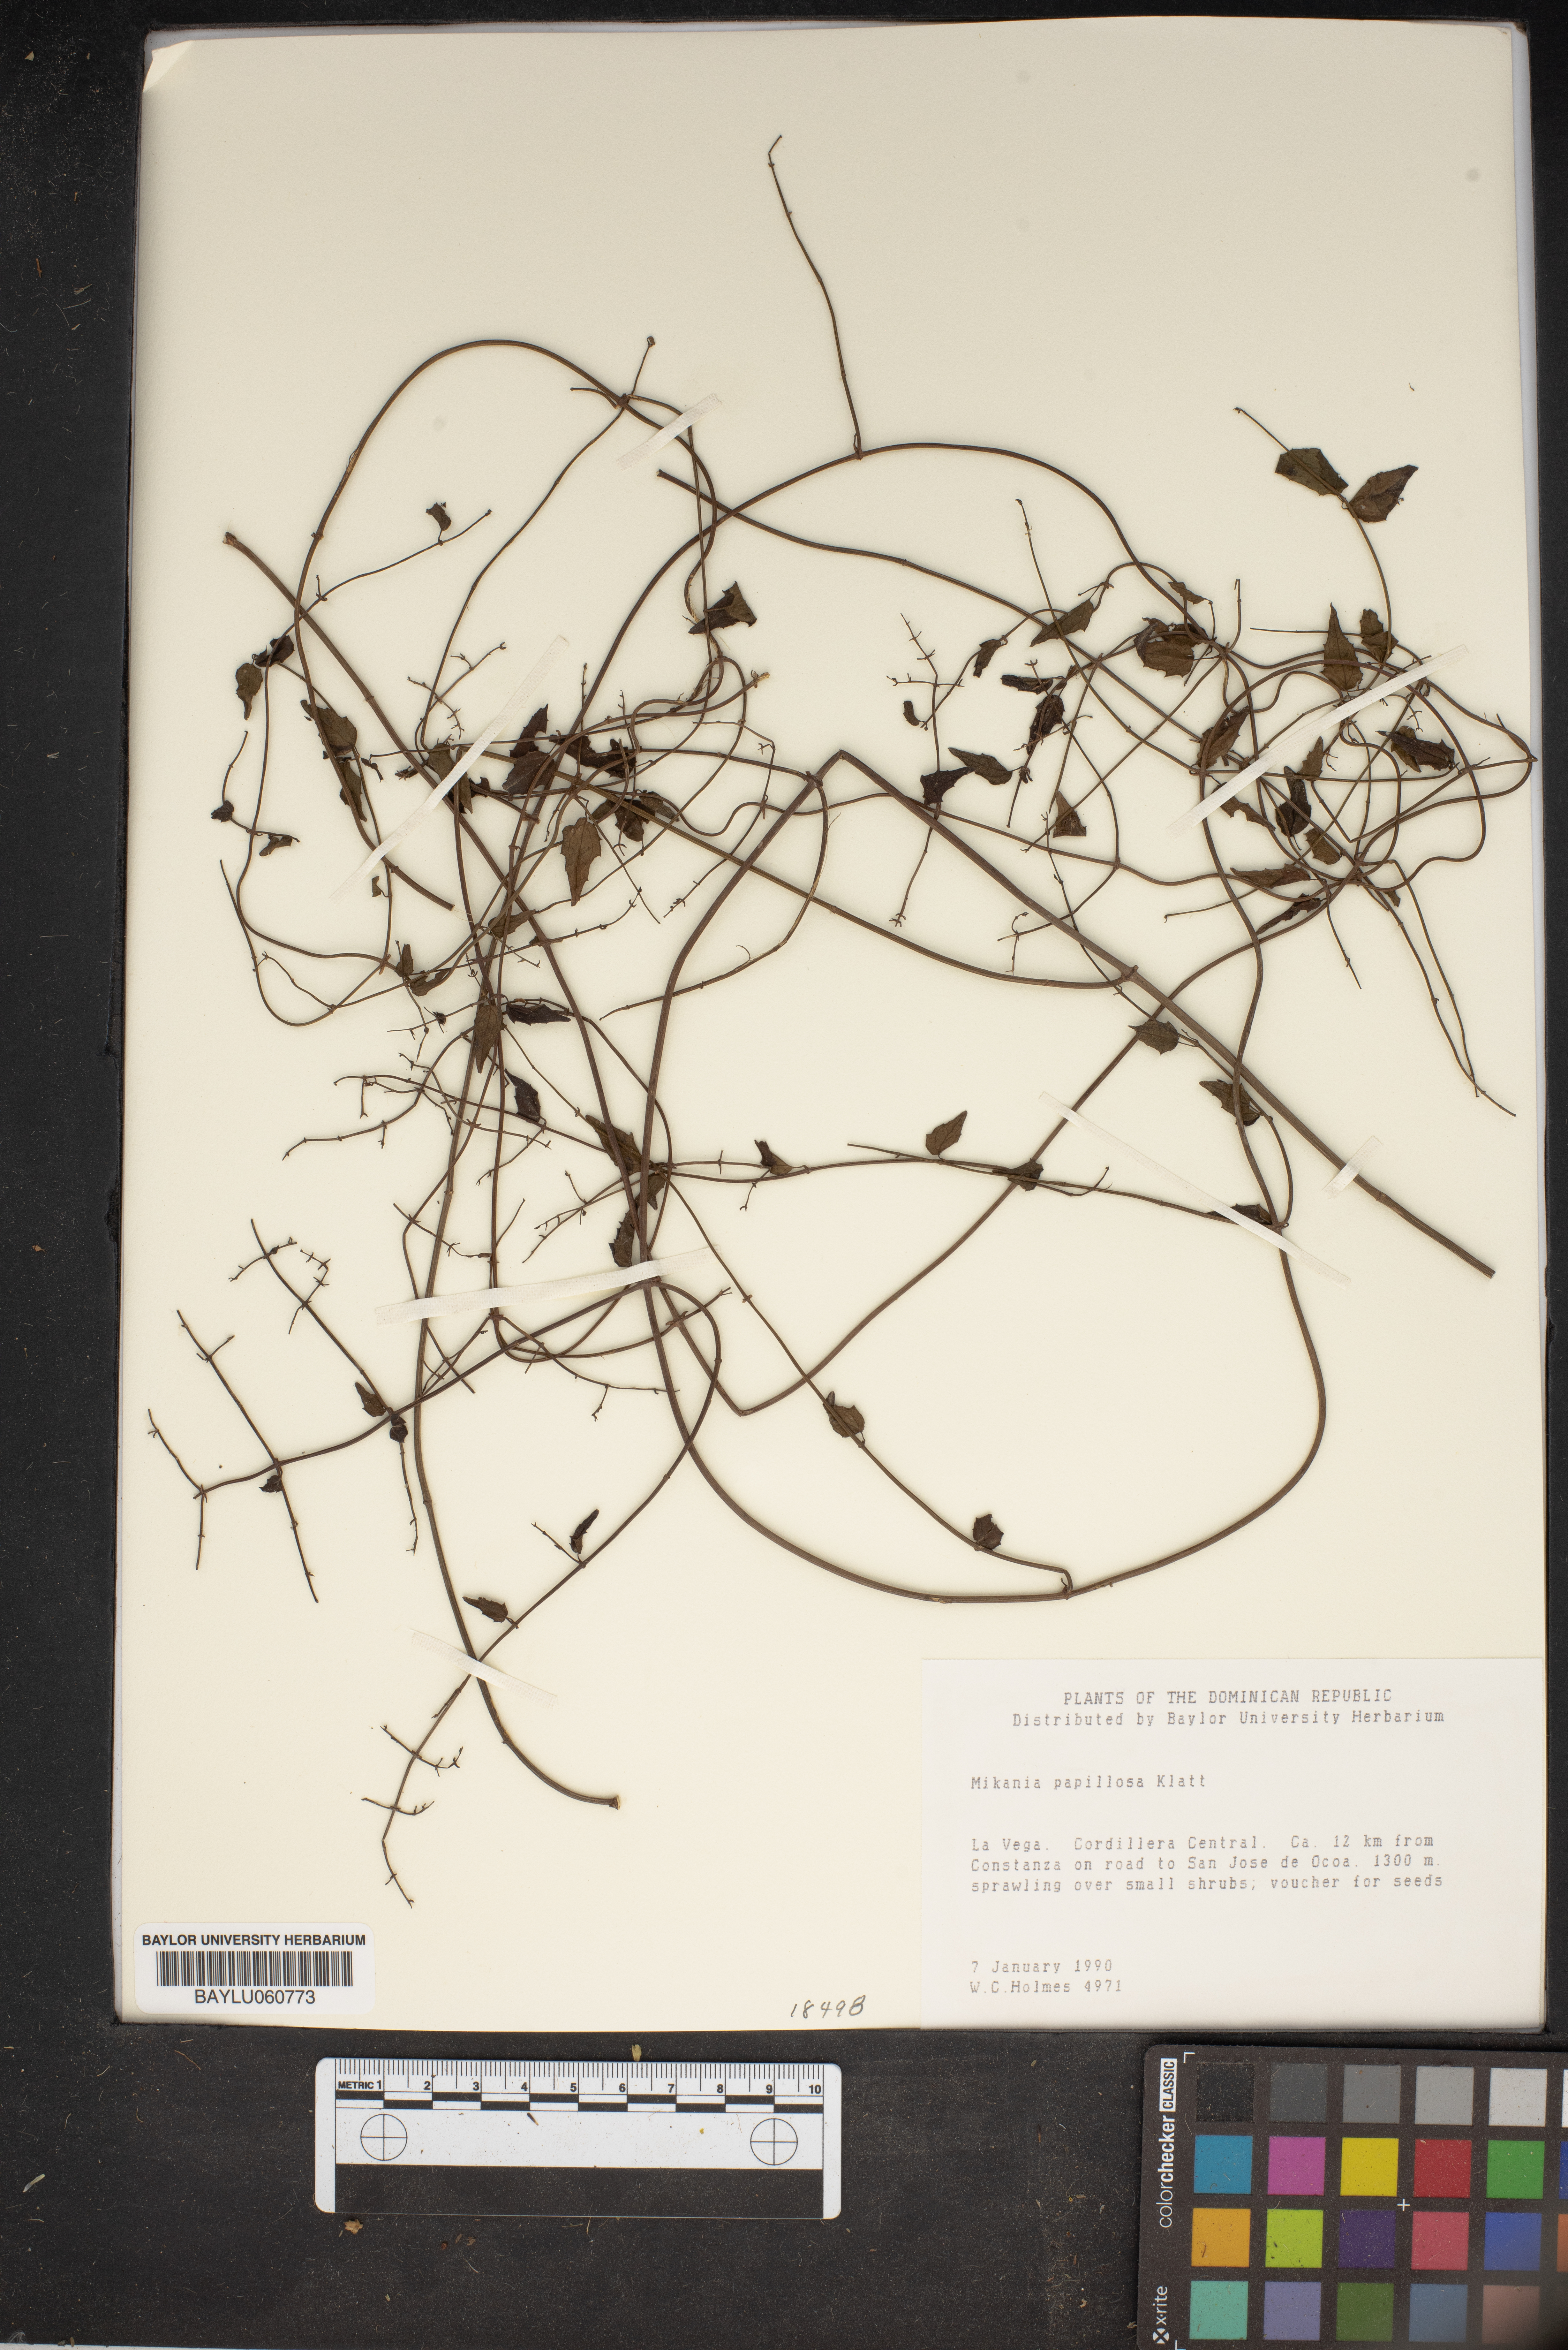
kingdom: Plantae
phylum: Tracheophyta
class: Magnoliopsida
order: Asterales
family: Asteraceae
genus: Mikania
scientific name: Mikania papillosa
